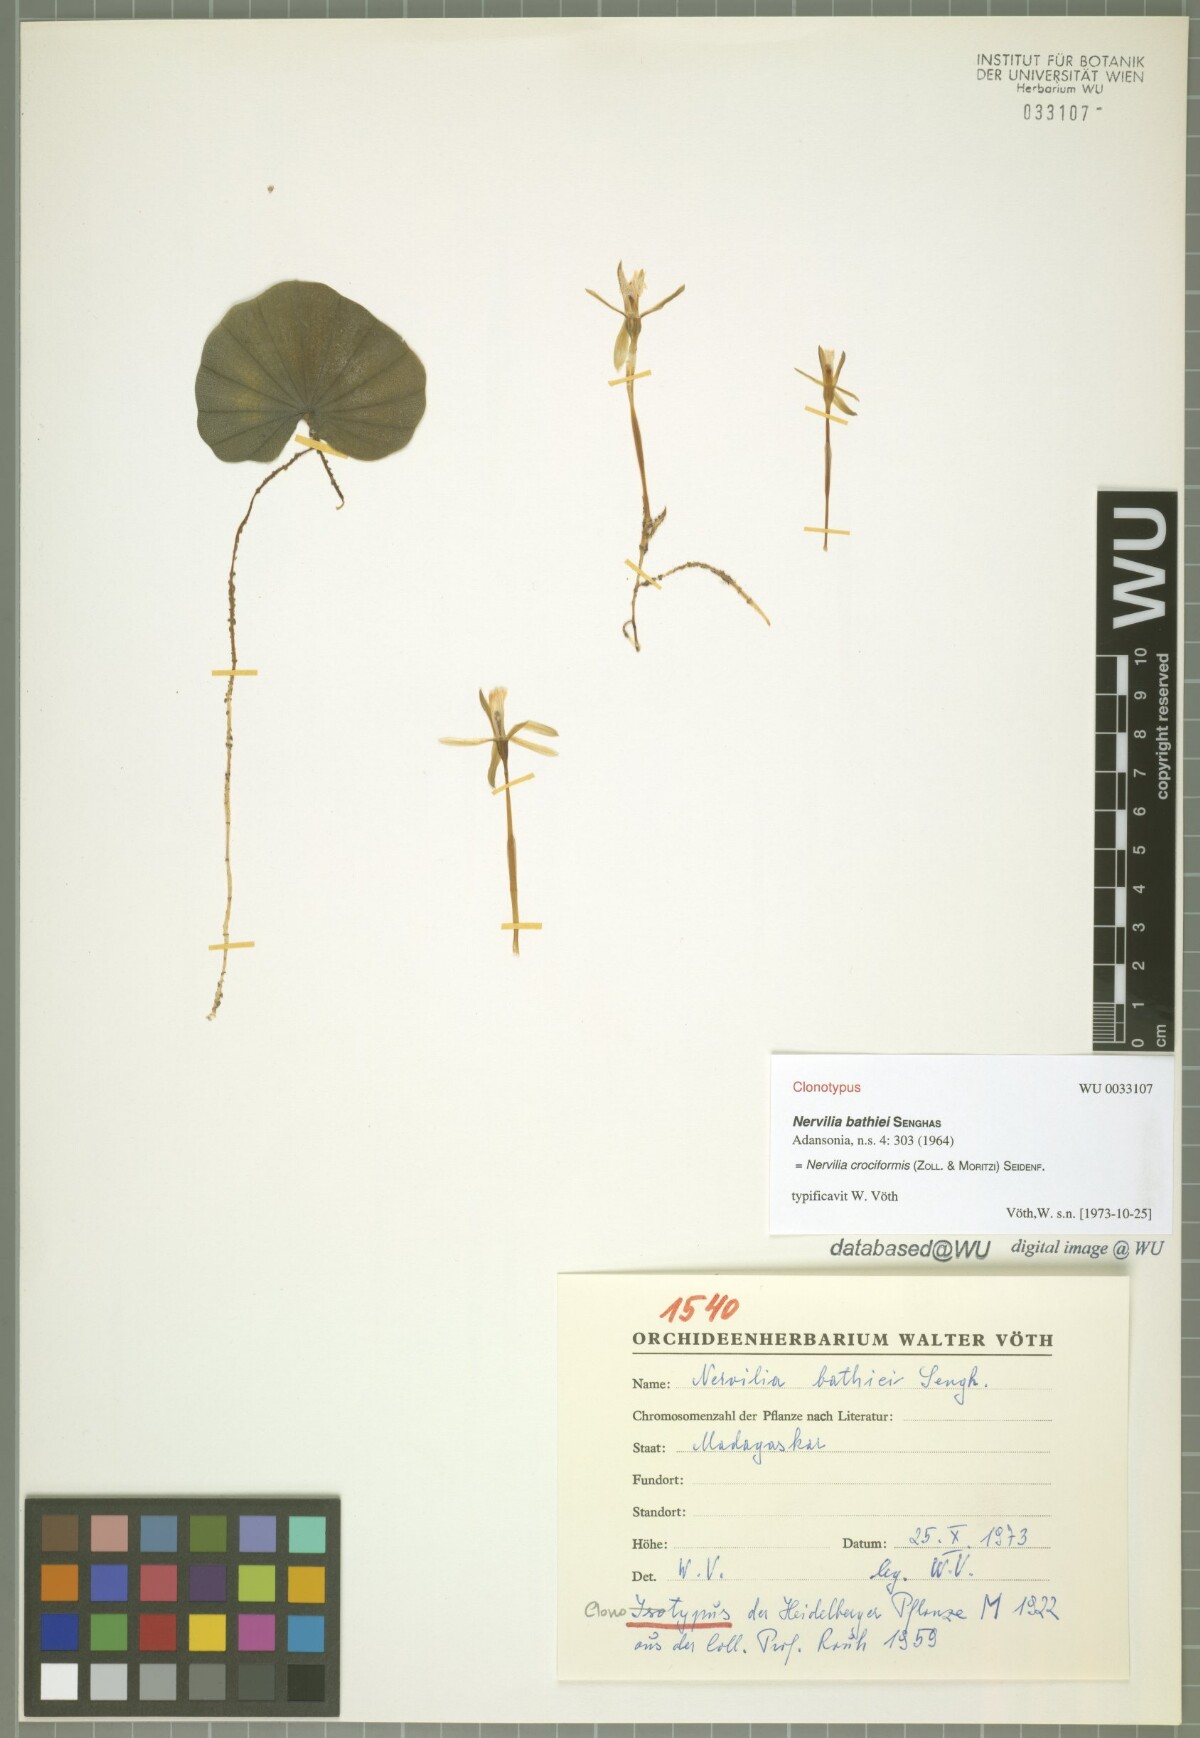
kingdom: Plantae
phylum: Tracheophyta
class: Liliopsida
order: Asparagales
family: Orchidaceae
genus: Nervilia
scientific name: Nervilia simplex
